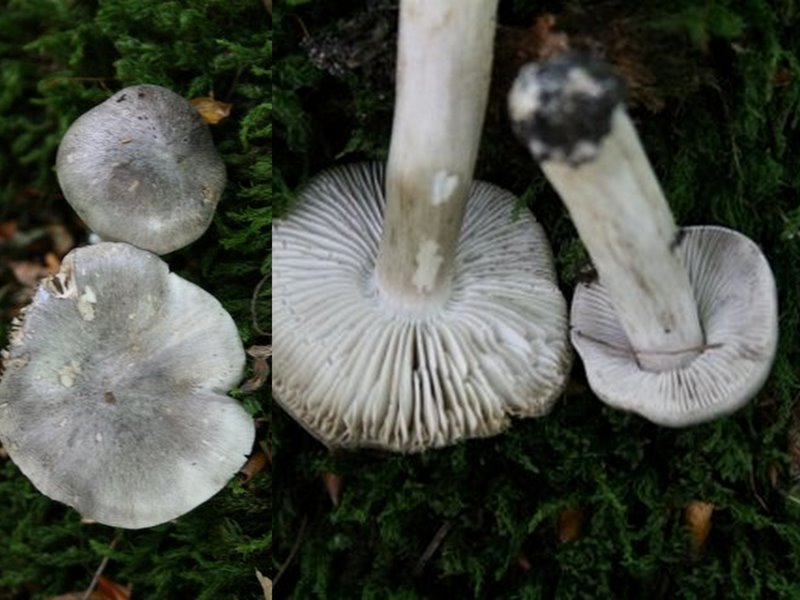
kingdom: Fungi
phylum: Basidiomycota
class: Agaricomycetes
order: Agaricales
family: Tricholomataceae
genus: Tricholoma
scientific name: Tricholoma sciodes
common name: stribet ridderhat
